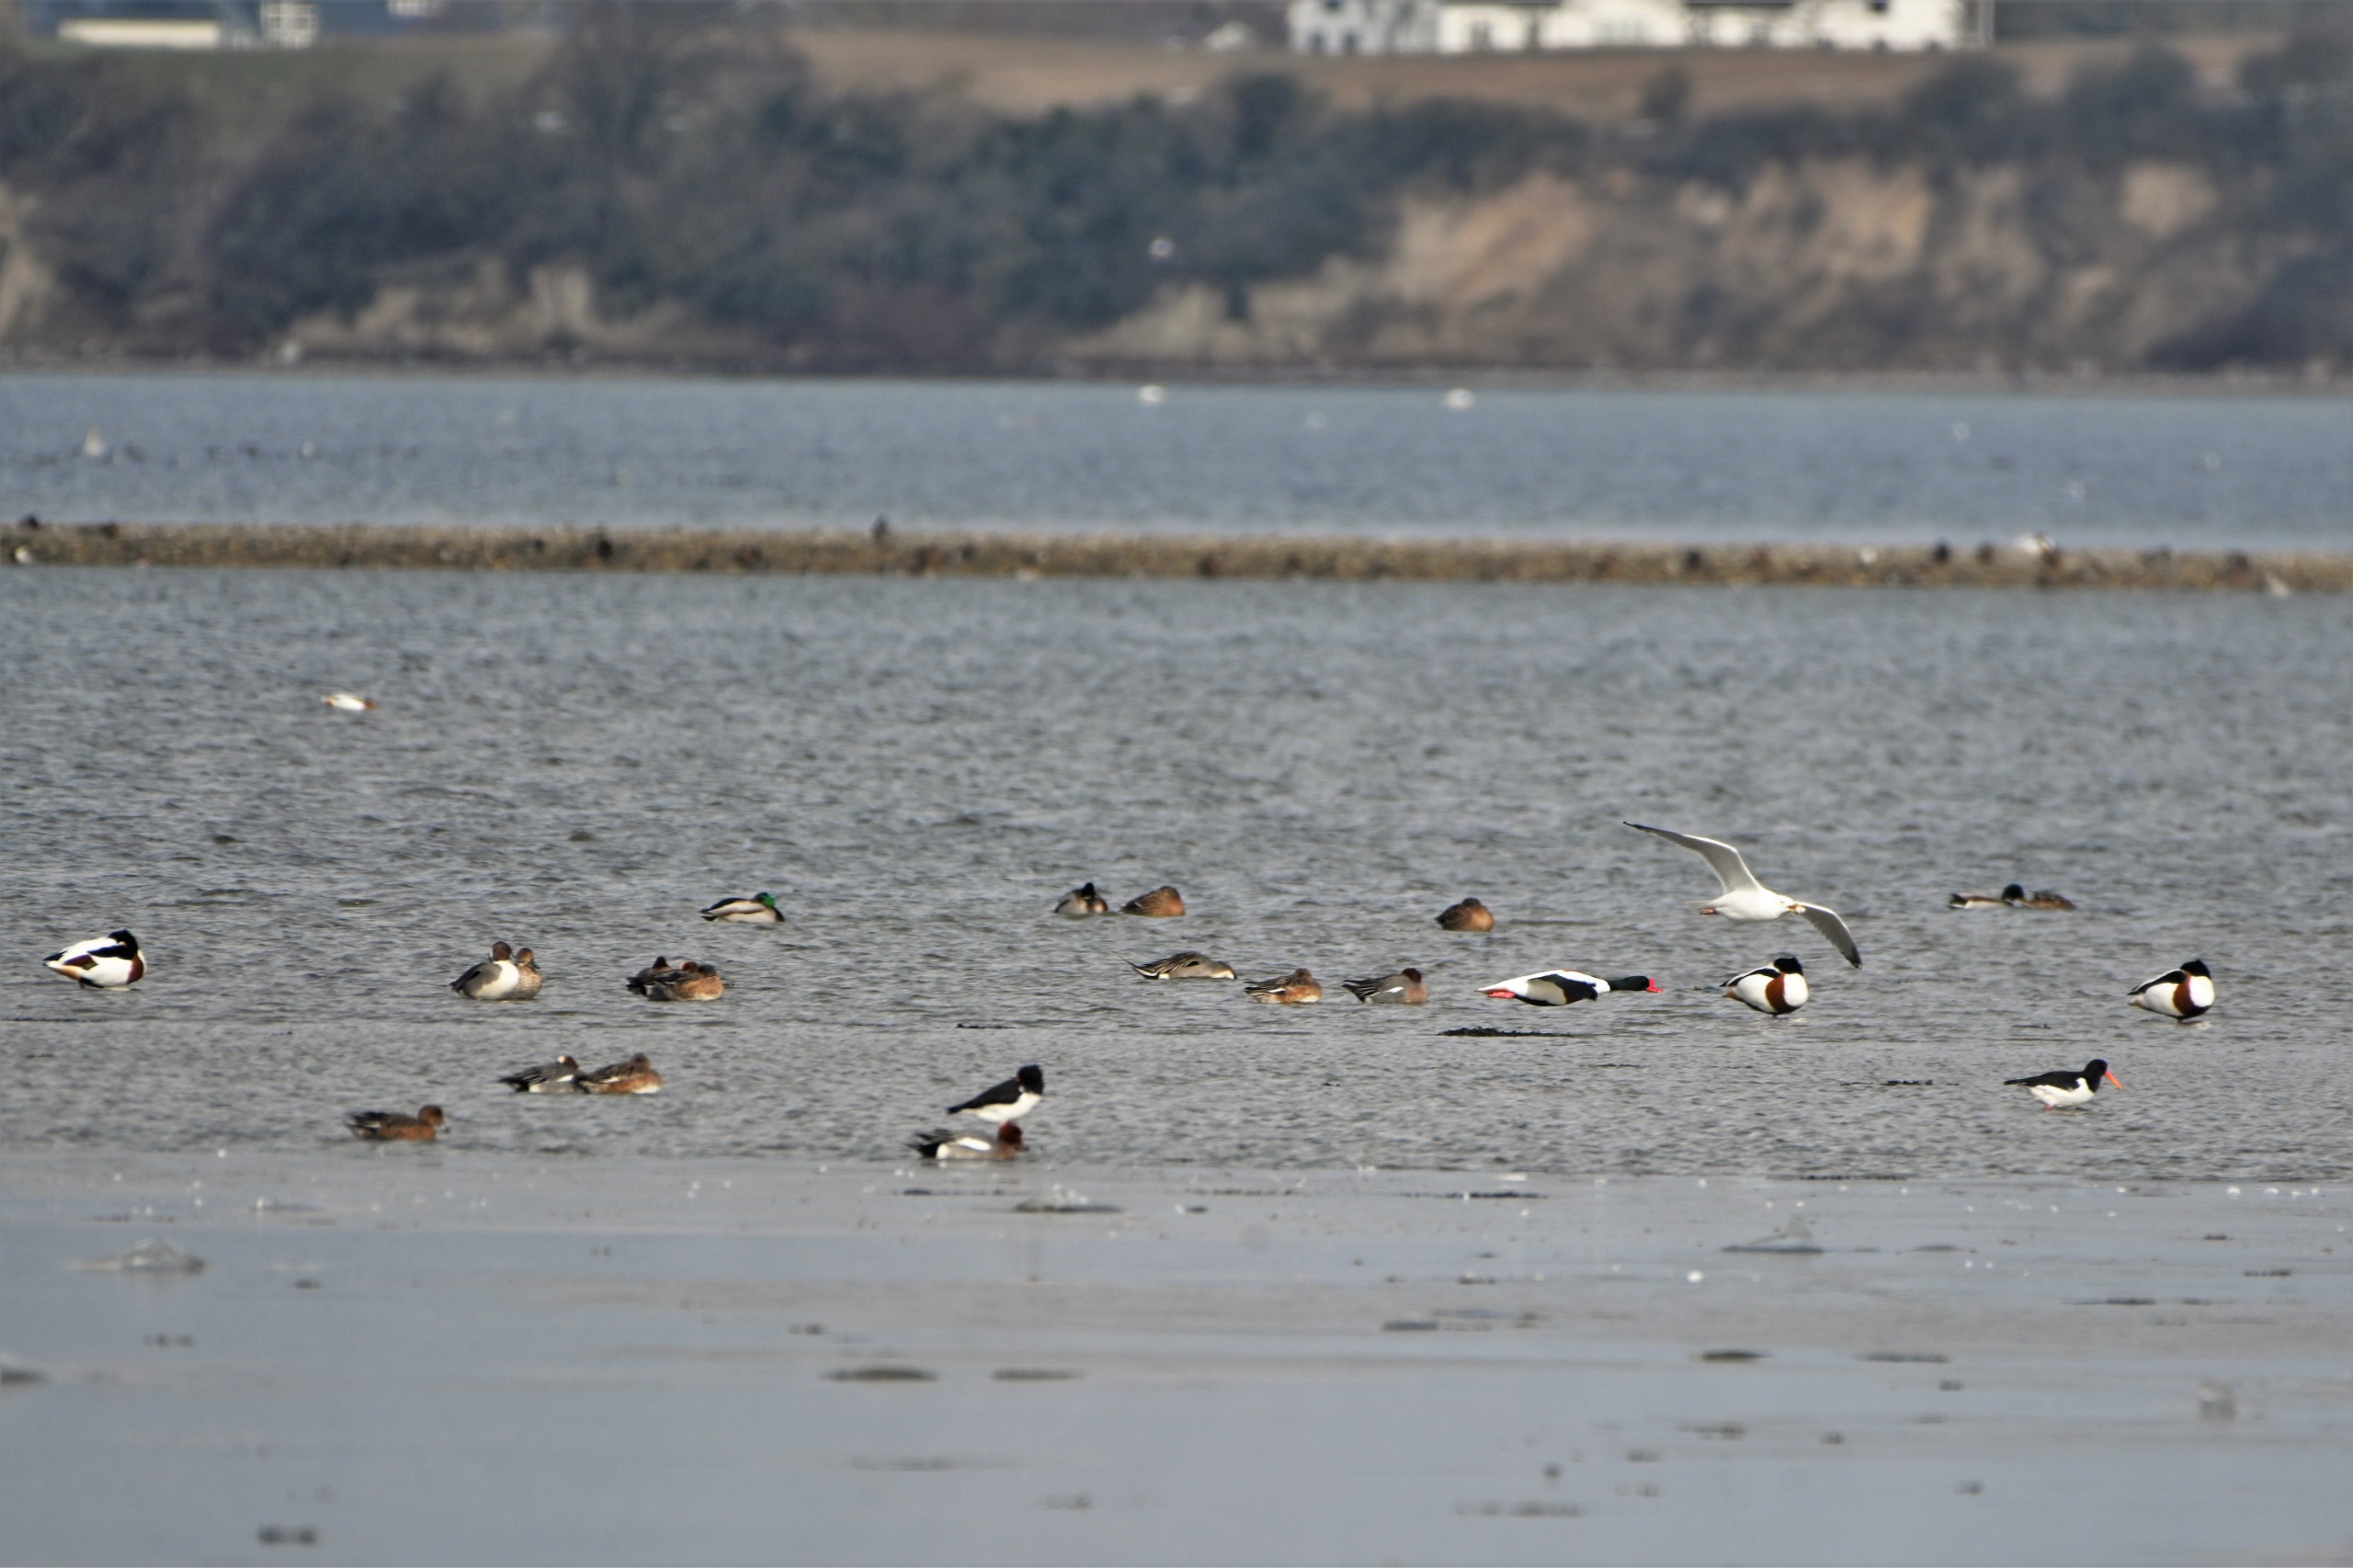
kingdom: Animalia
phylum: Chordata
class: Aves
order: Anseriformes
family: Anatidae
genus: Tadorna
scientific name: Tadorna tadorna
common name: Gravand
